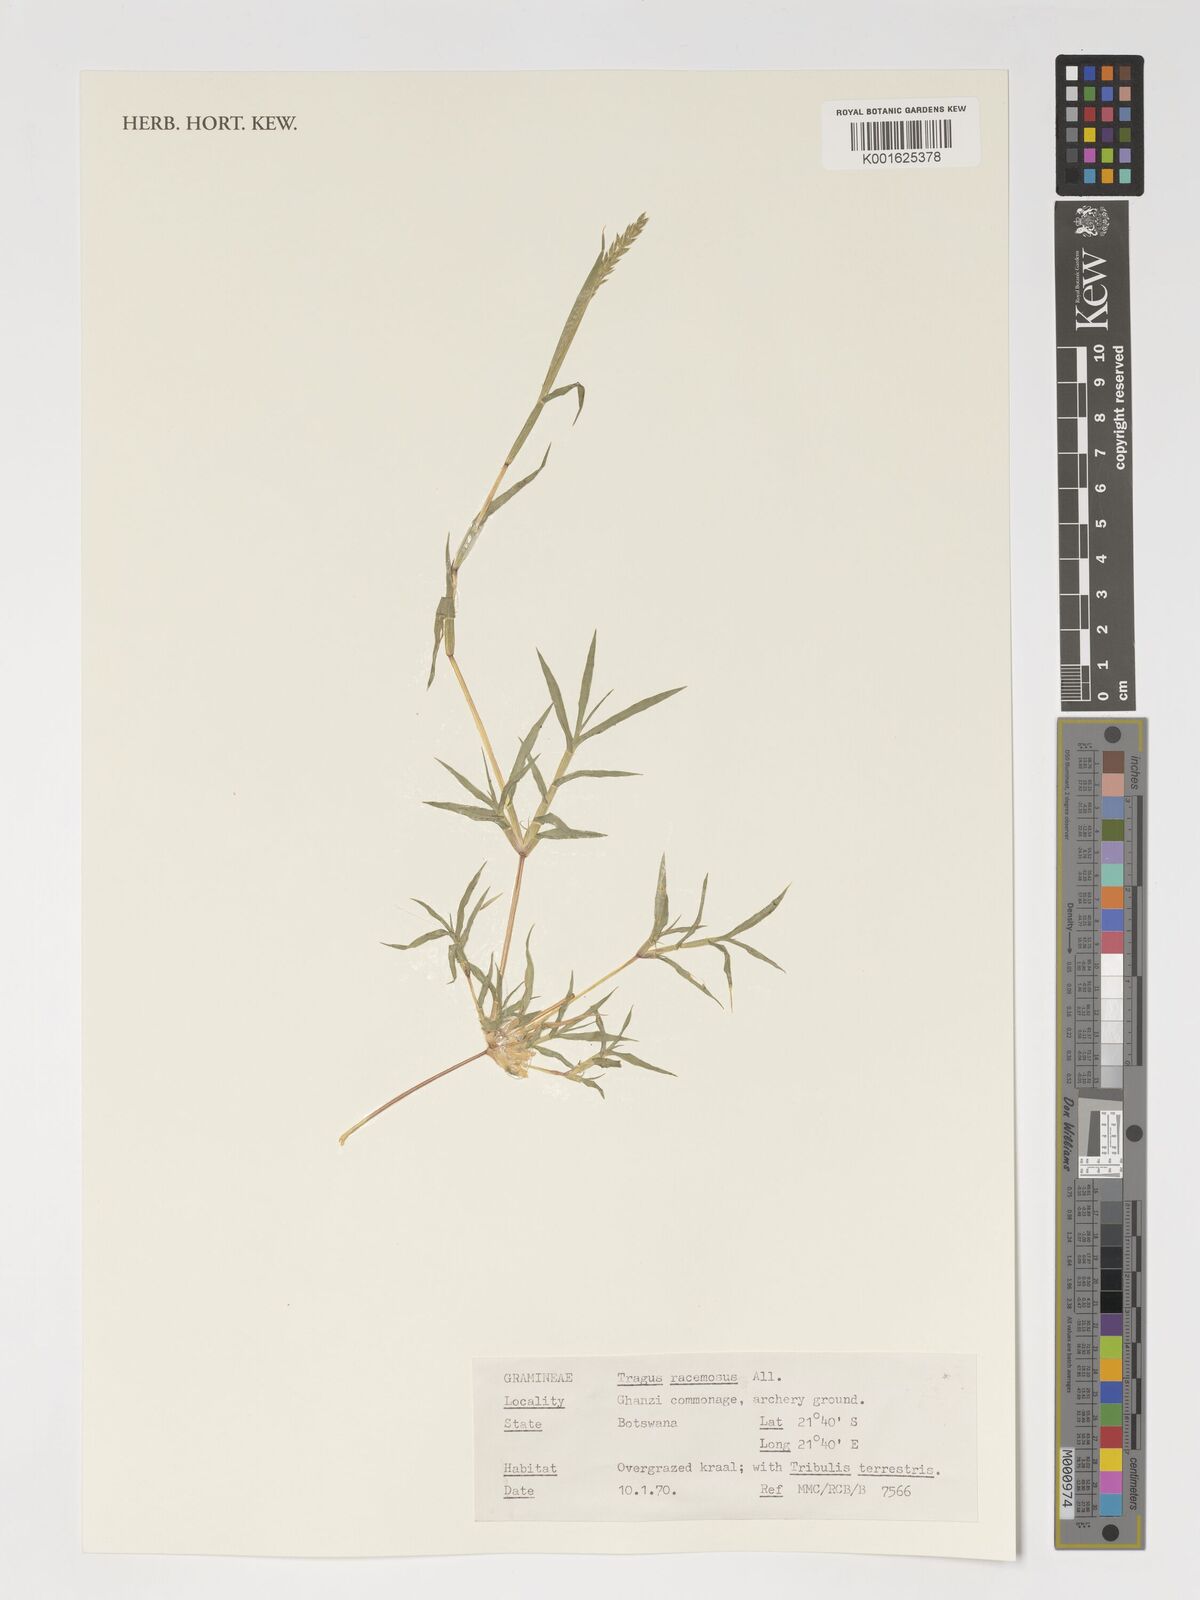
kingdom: Plantae
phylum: Tracheophyta
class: Liliopsida
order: Poales
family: Poaceae
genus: Tragus
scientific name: Tragus racemosus
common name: European bur-grass
